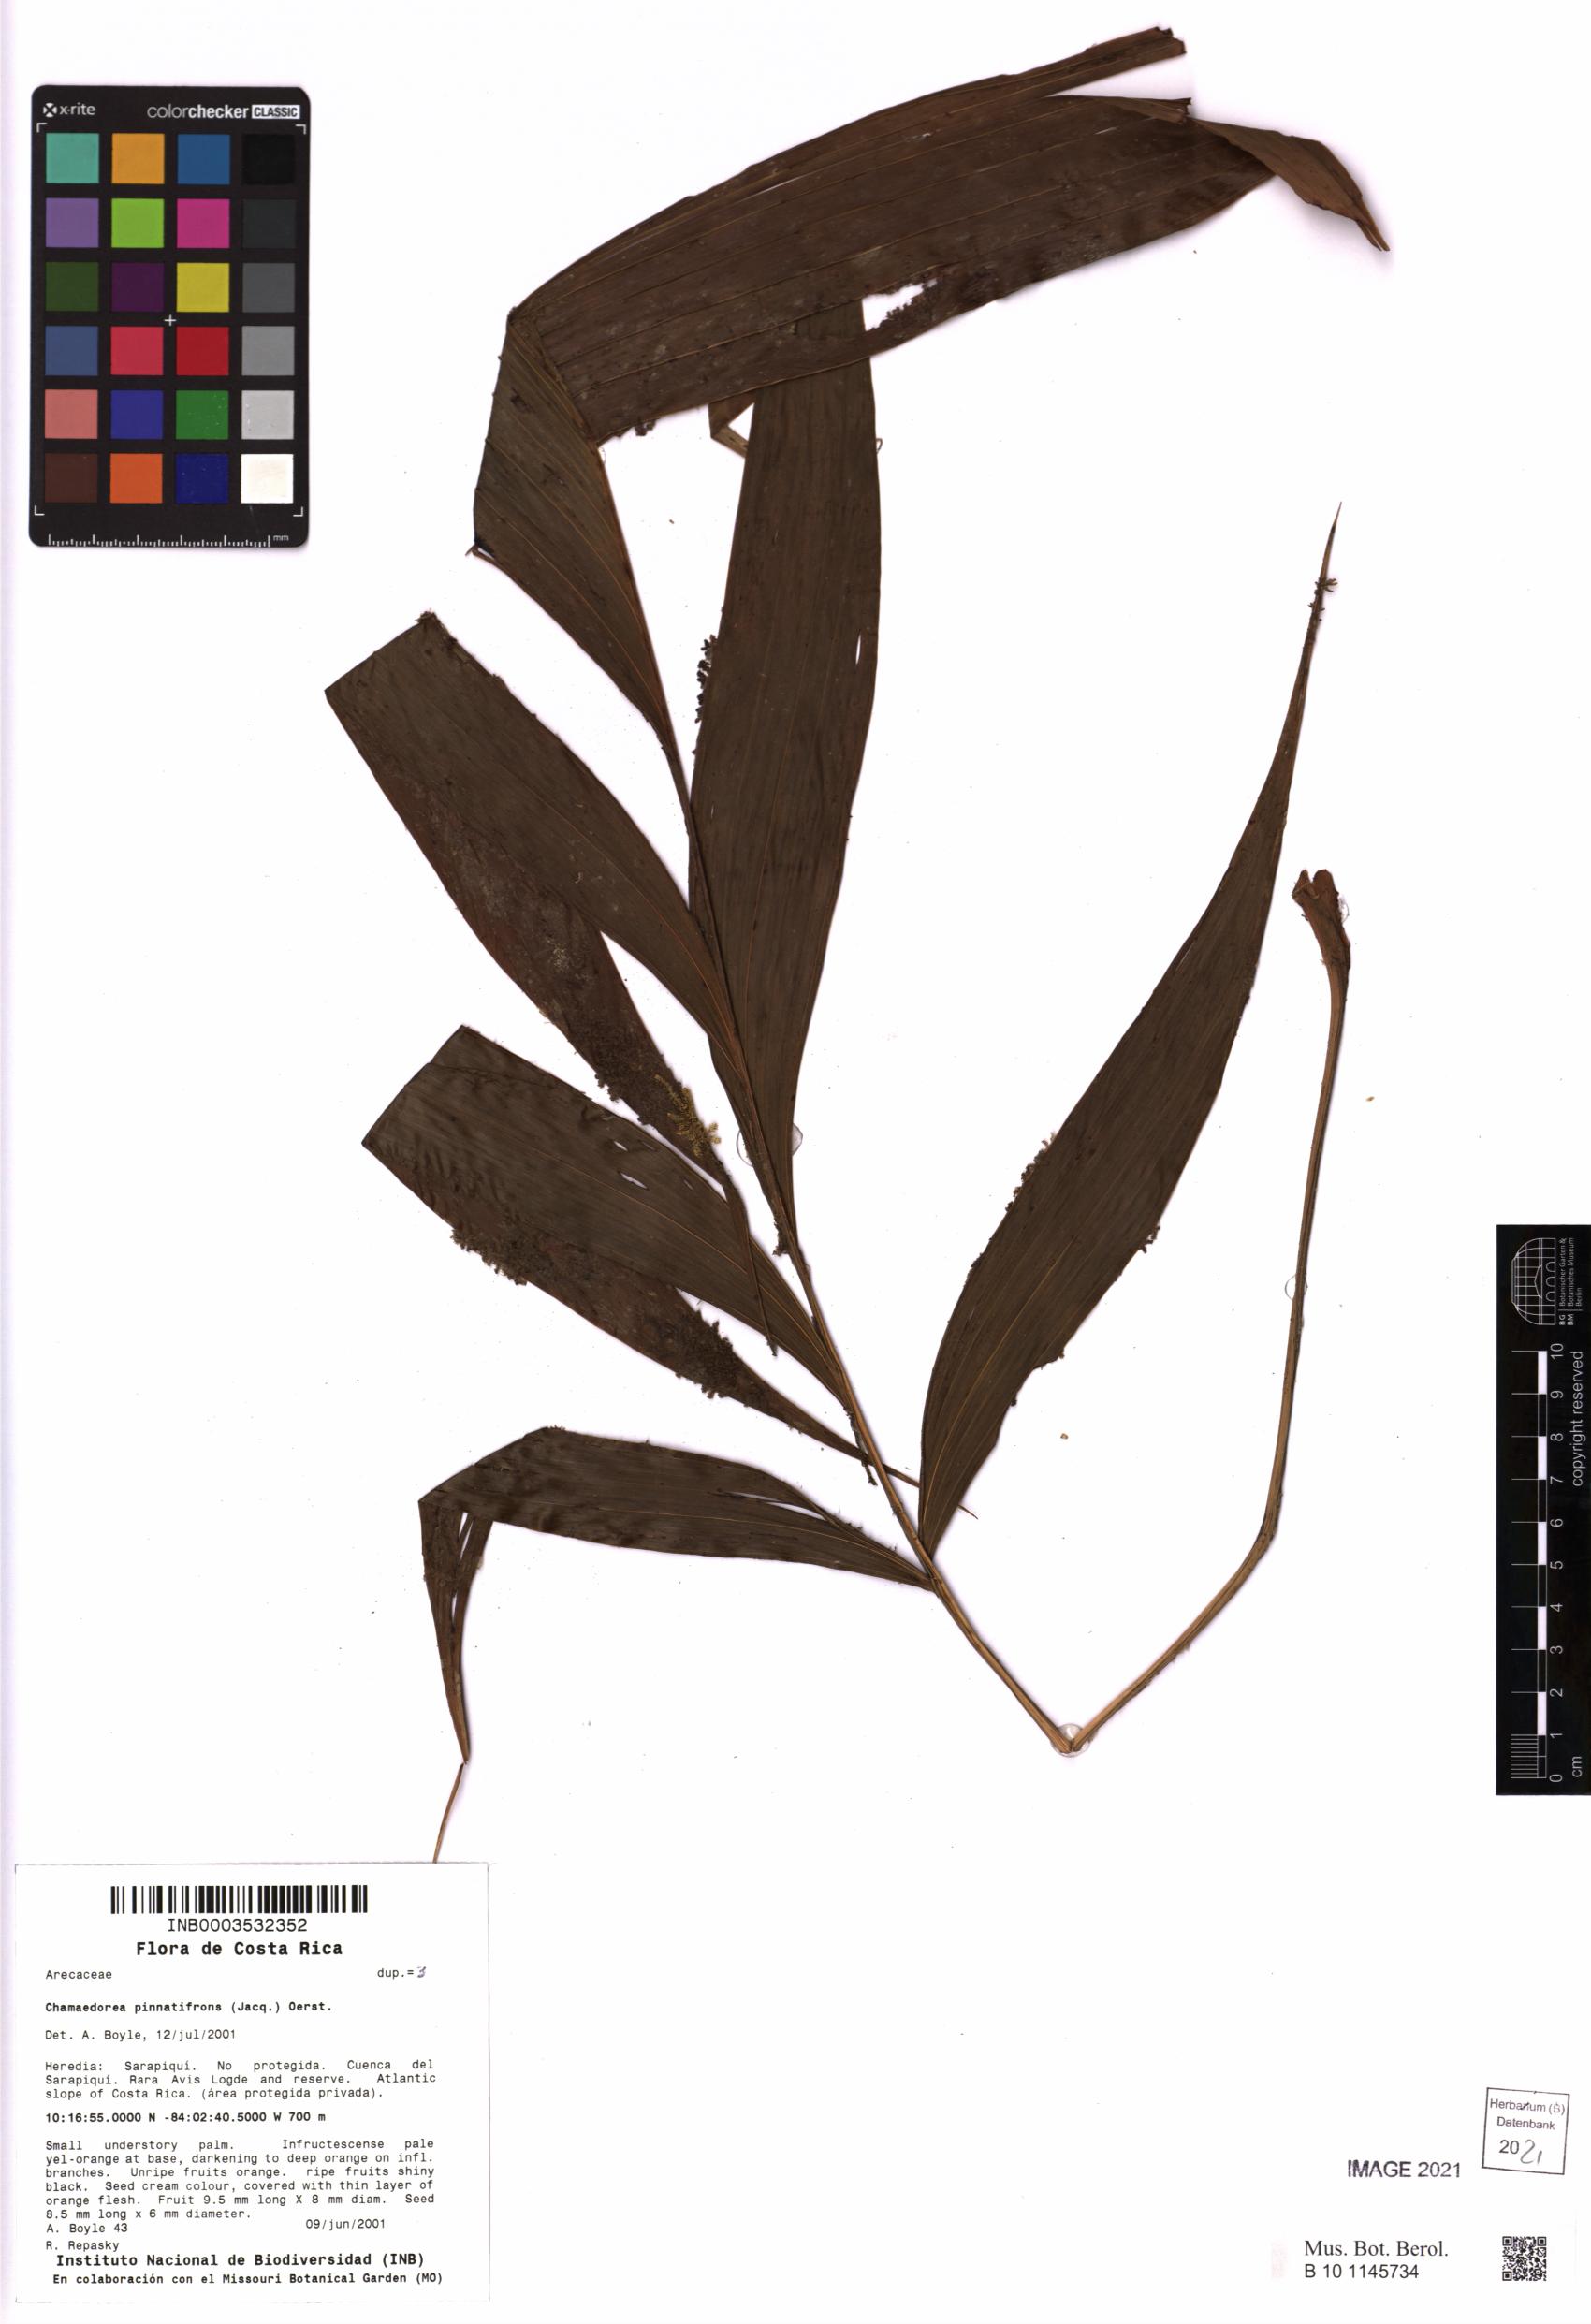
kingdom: Plantae
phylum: Tracheophyta
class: Liliopsida
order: Arecales
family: Arecaceae
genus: Chamaedorea
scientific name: Chamaedorea pinnatifrons
